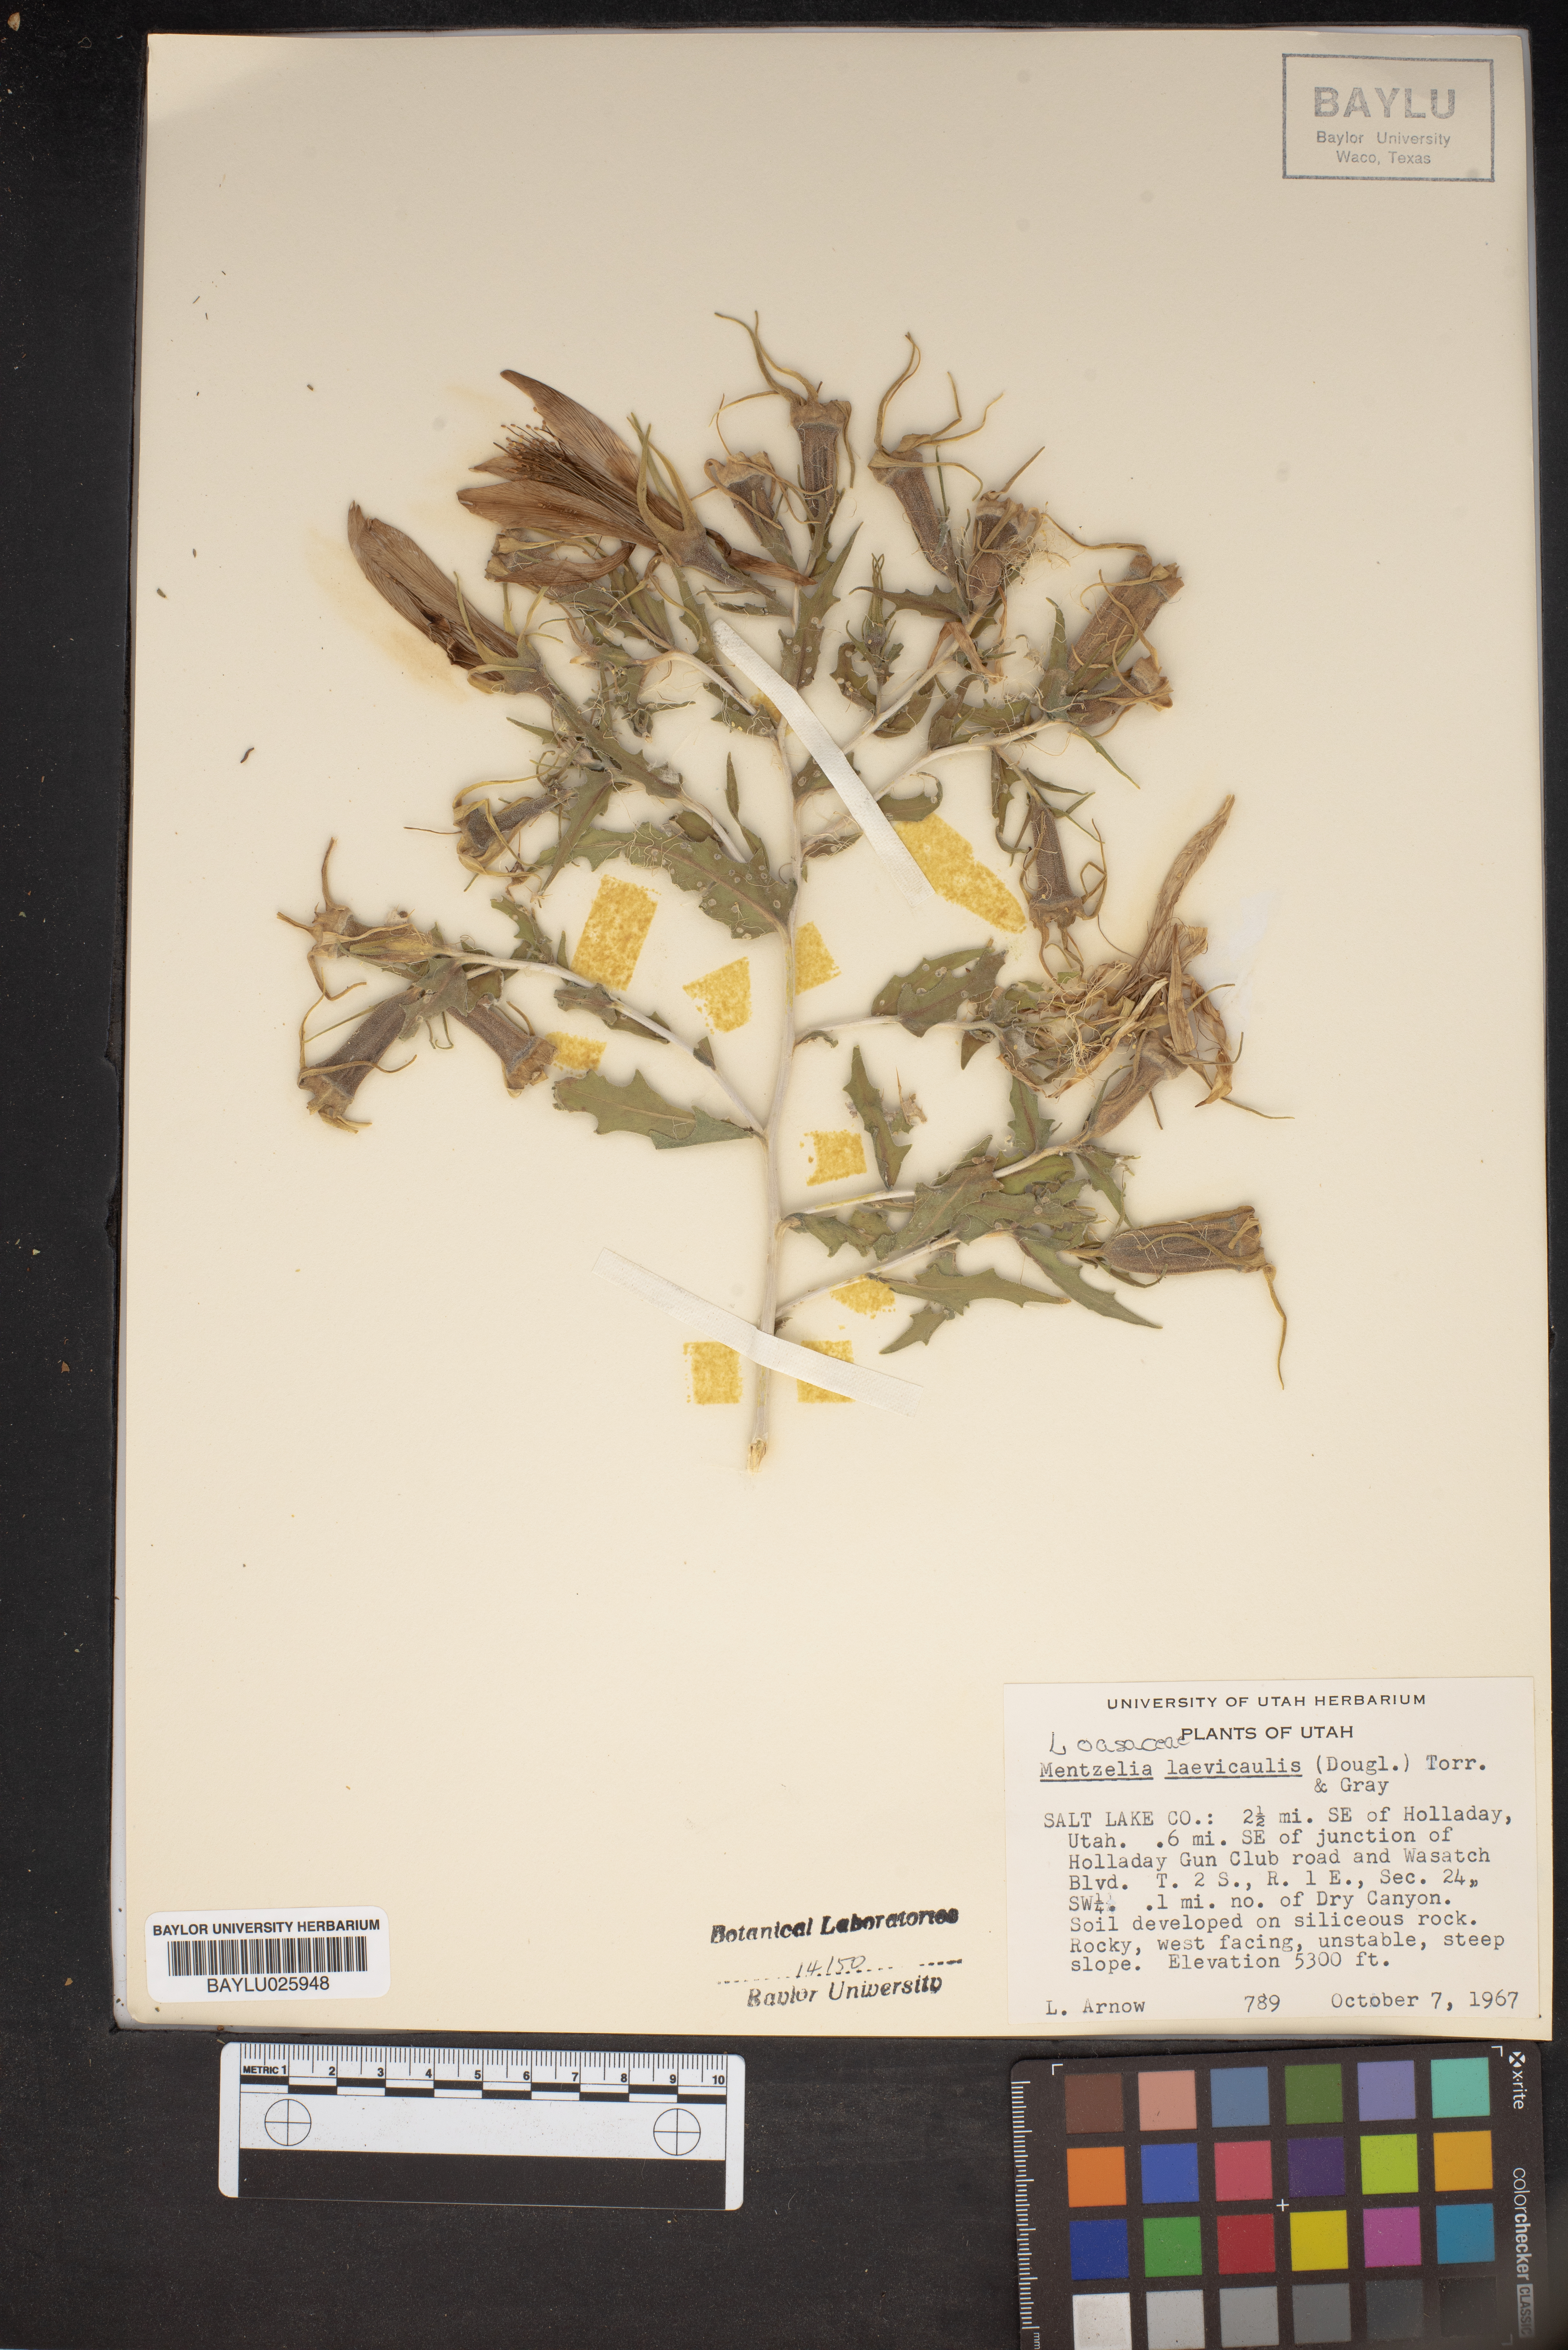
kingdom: Plantae
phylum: Tracheophyta
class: Magnoliopsida
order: Cornales
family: Loasaceae
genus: Mentzelia
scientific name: Mentzelia laevicaulis
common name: Smooth-stem blazingstar
